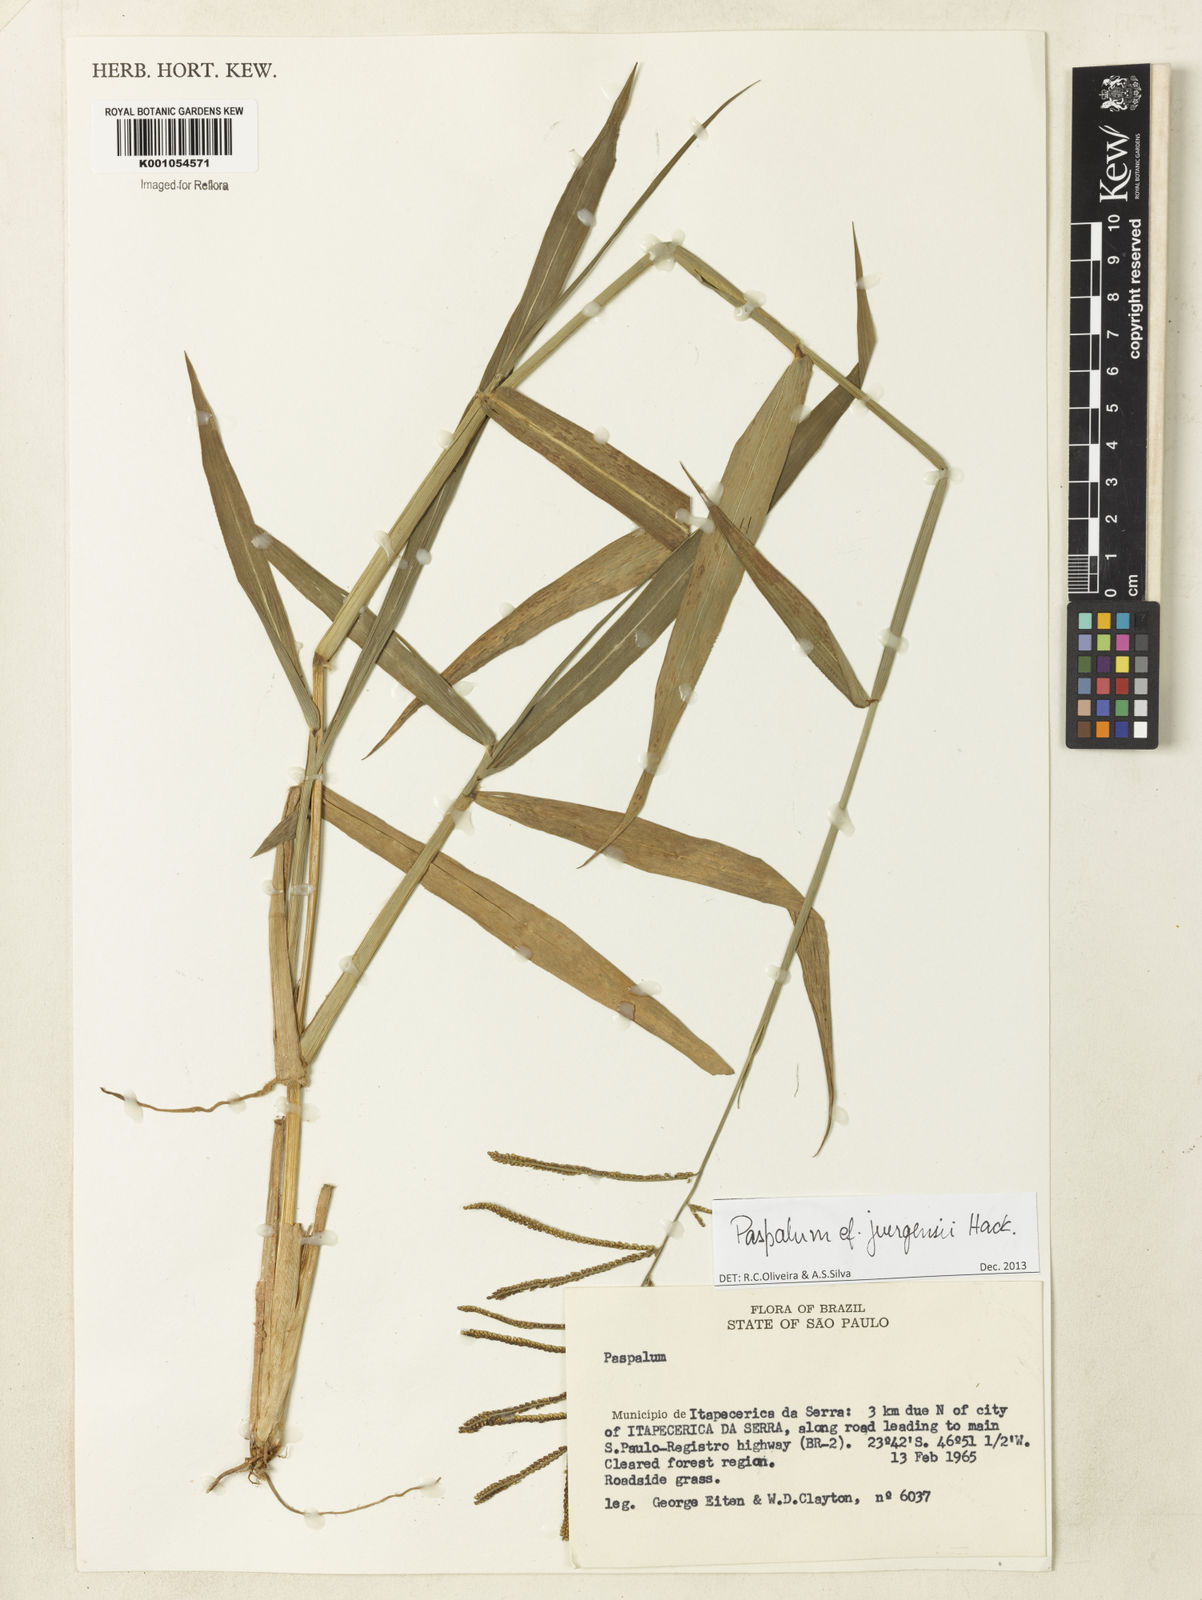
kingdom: Plantae
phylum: Tracheophyta
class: Liliopsida
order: Poales
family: Poaceae
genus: Paspalum
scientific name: Paspalum juergensii
